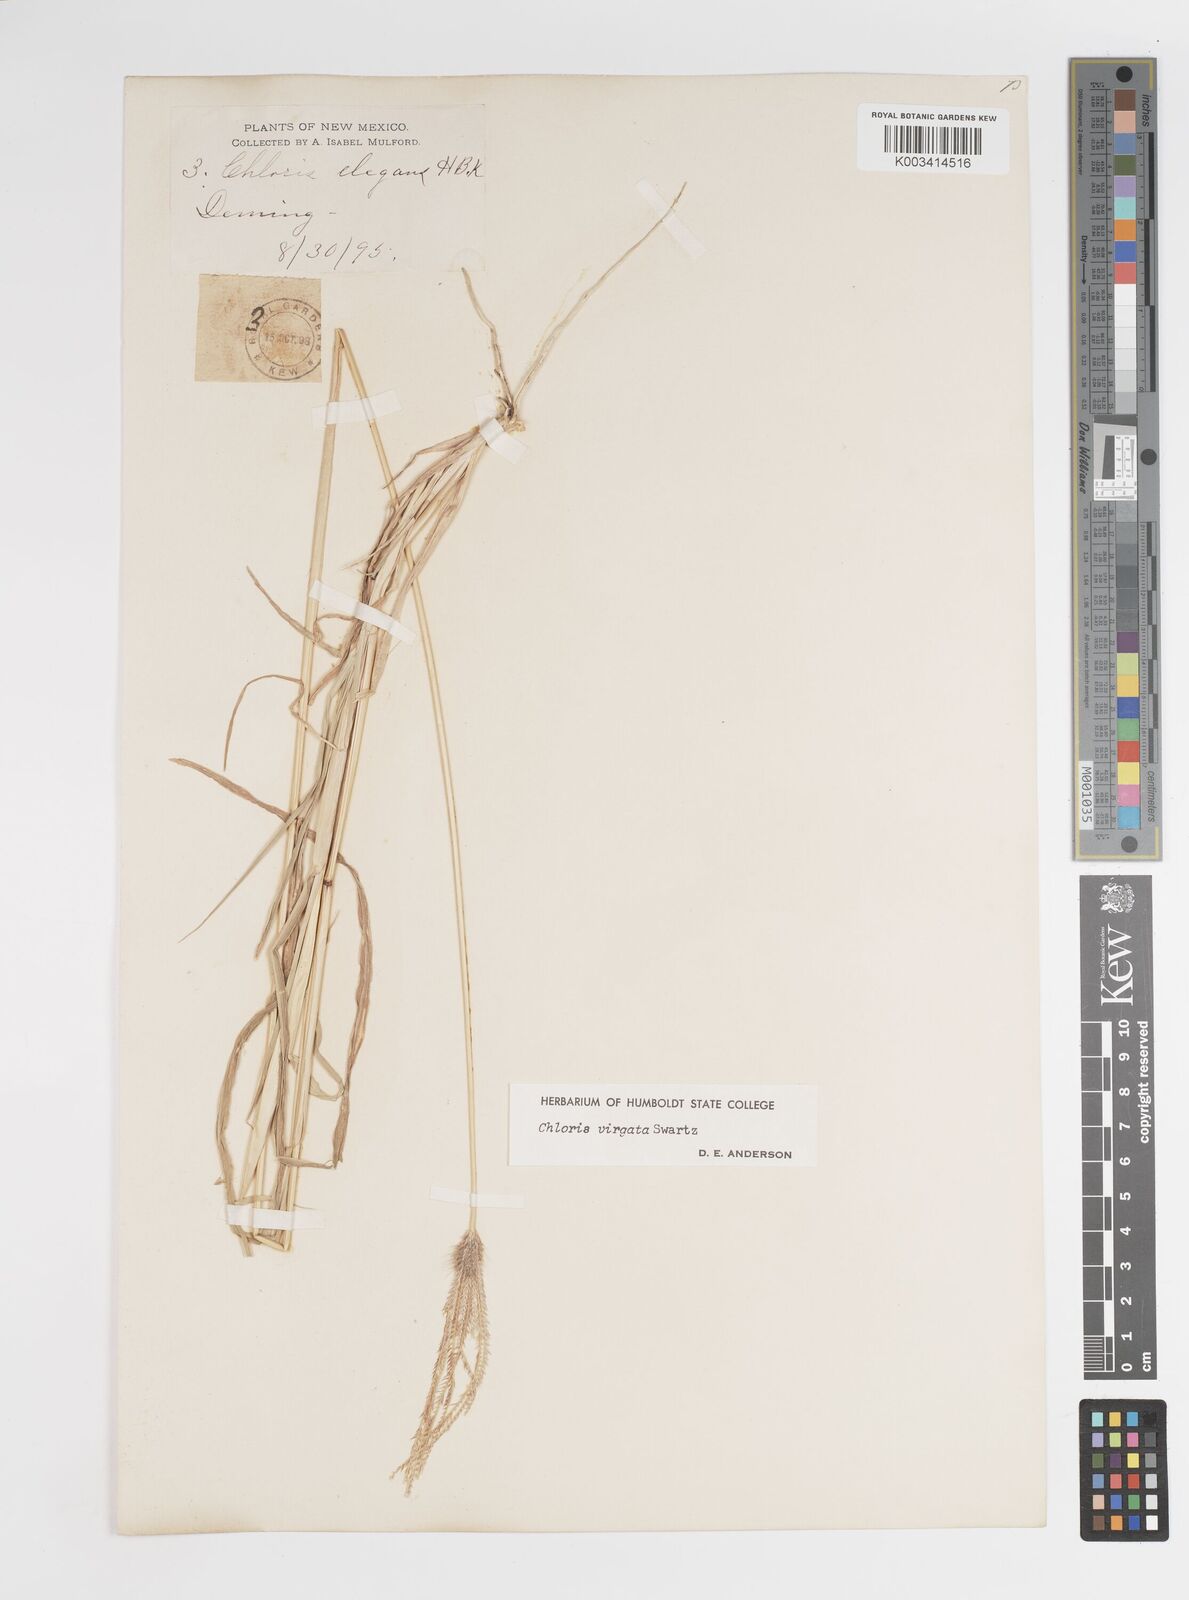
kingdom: Plantae
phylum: Tracheophyta
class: Liliopsida
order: Poales
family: Poaceae
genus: Chloris
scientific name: Chloris virgata
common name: Feathery rhodes-grass
